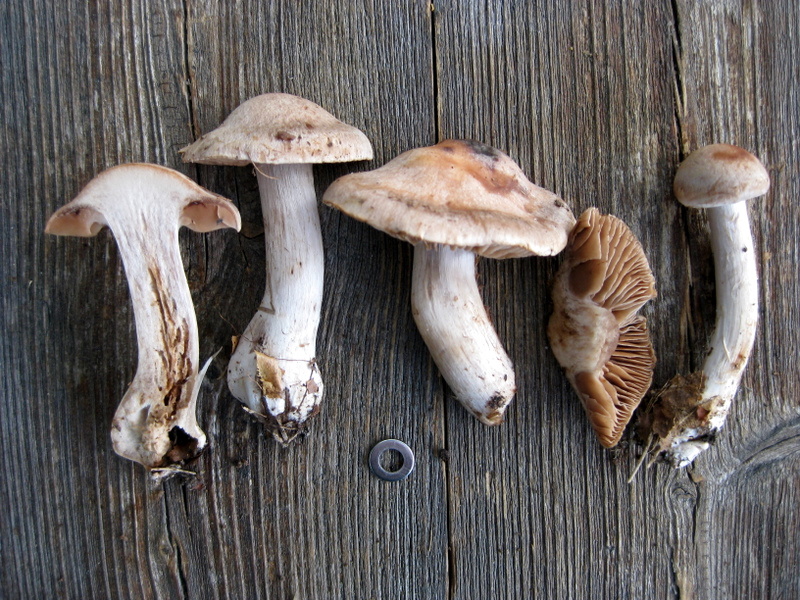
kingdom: Fungi
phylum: Basidiomycota
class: Agaricomycetes
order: Agaricales
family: Cortinariaceae
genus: Cortinarius
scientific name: Cortinarius urbicus
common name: sølv-slørhat
